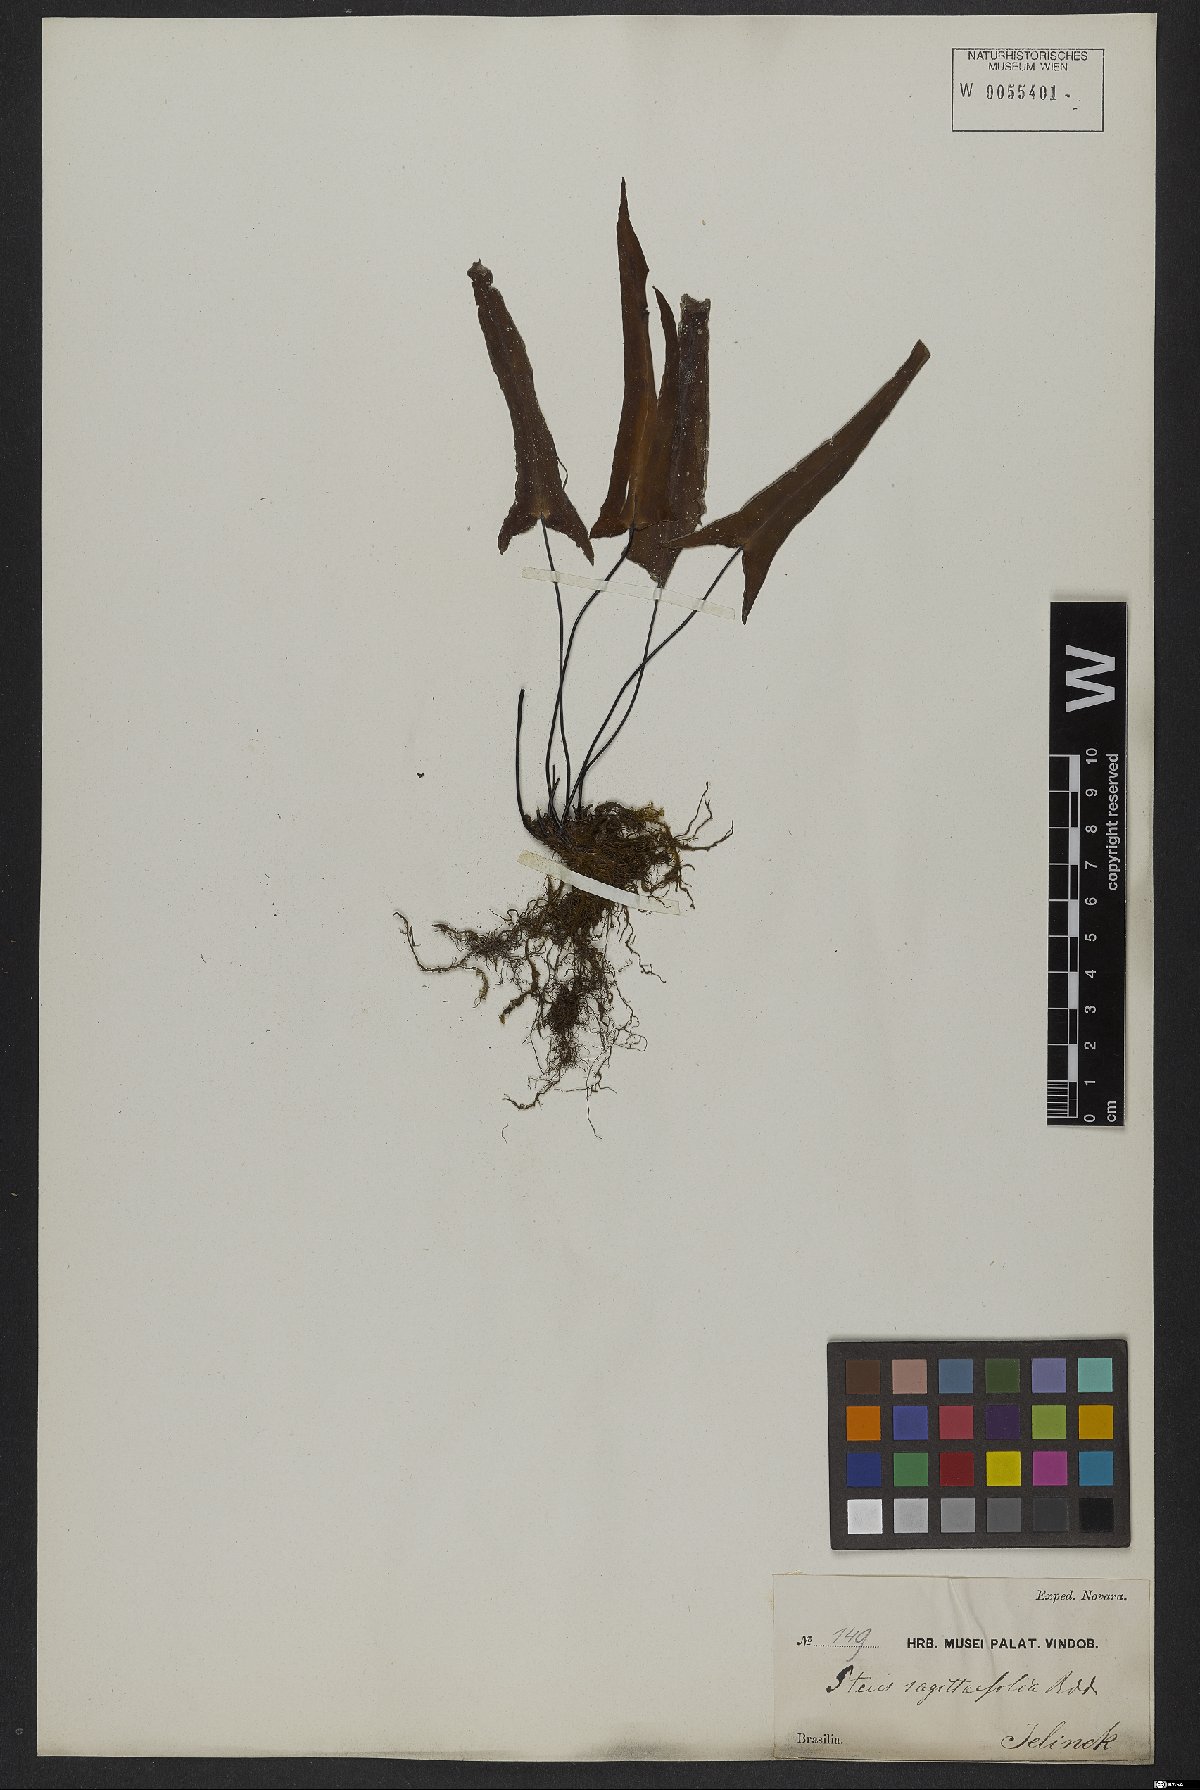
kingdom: Plantae
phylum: Tracheophyta
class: Polypodiopsida
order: Polypodiales
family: Pteridaceae
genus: Doryopteris
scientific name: Doryopteris sagittifolia
